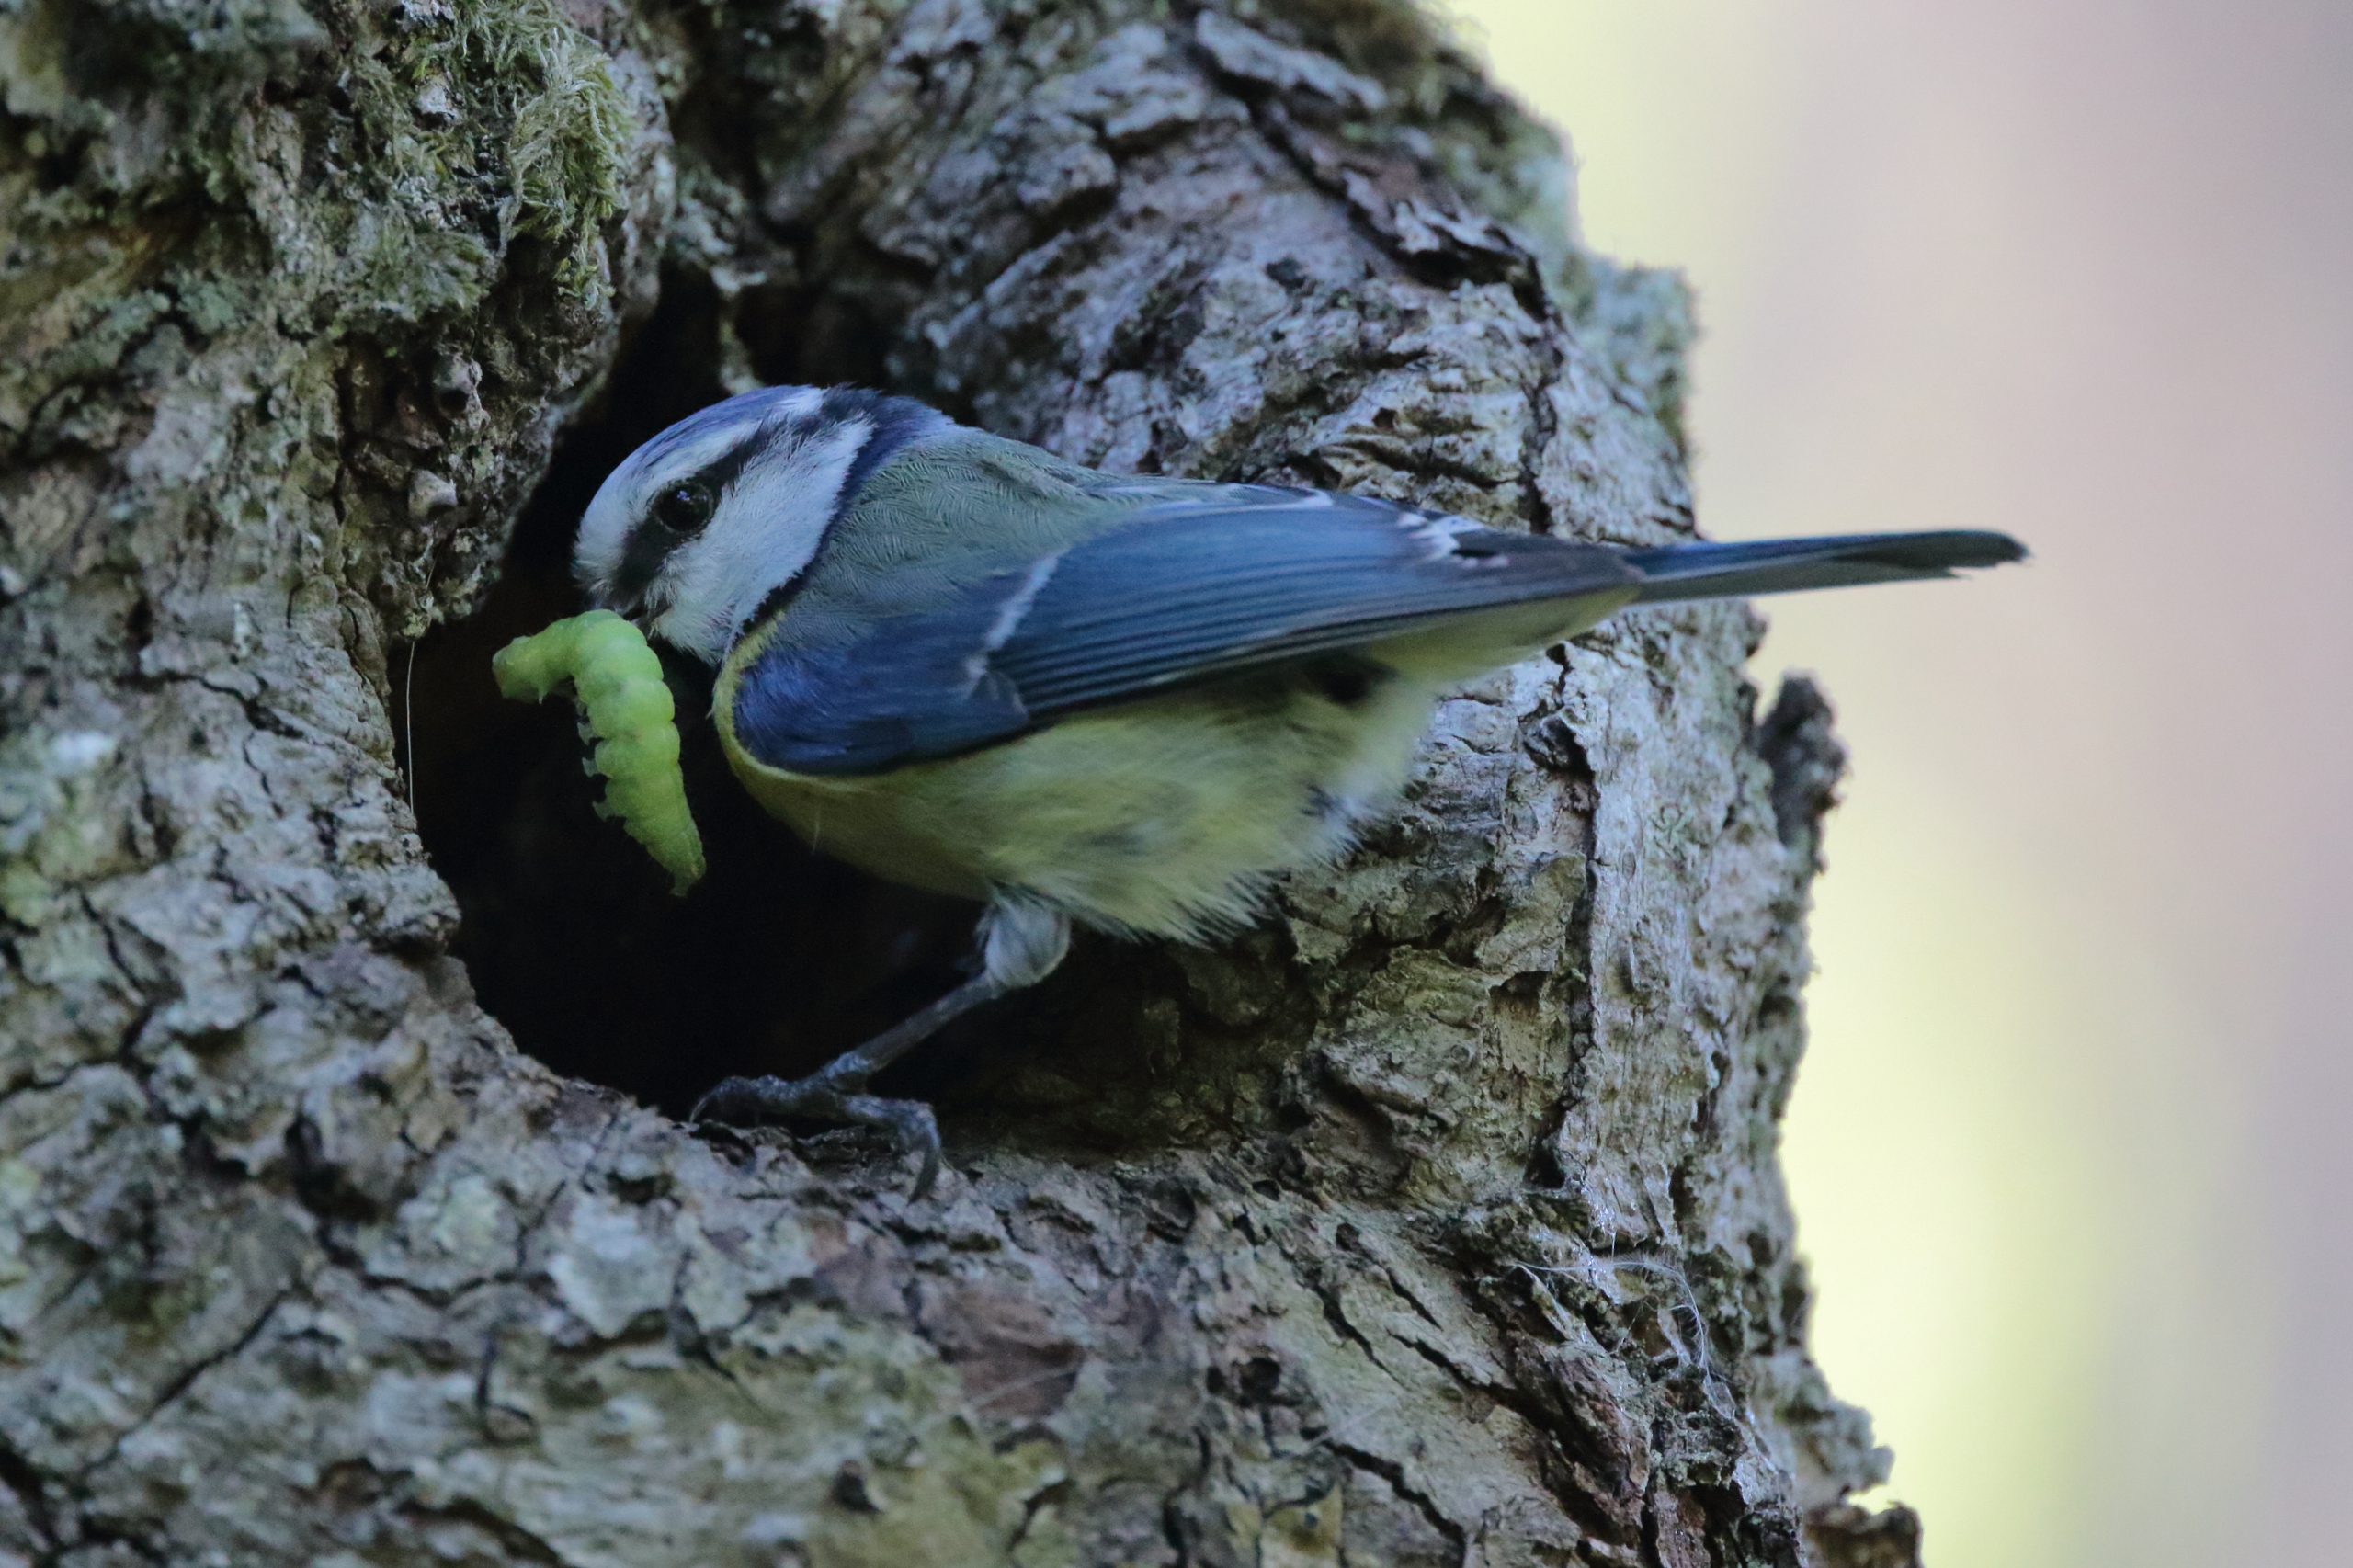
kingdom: Animalia
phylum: Chordata
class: Aves
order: Passeriformes
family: Paridae
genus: Cyanistes
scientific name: Cyanistes caeruleus
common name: Blåmejse
